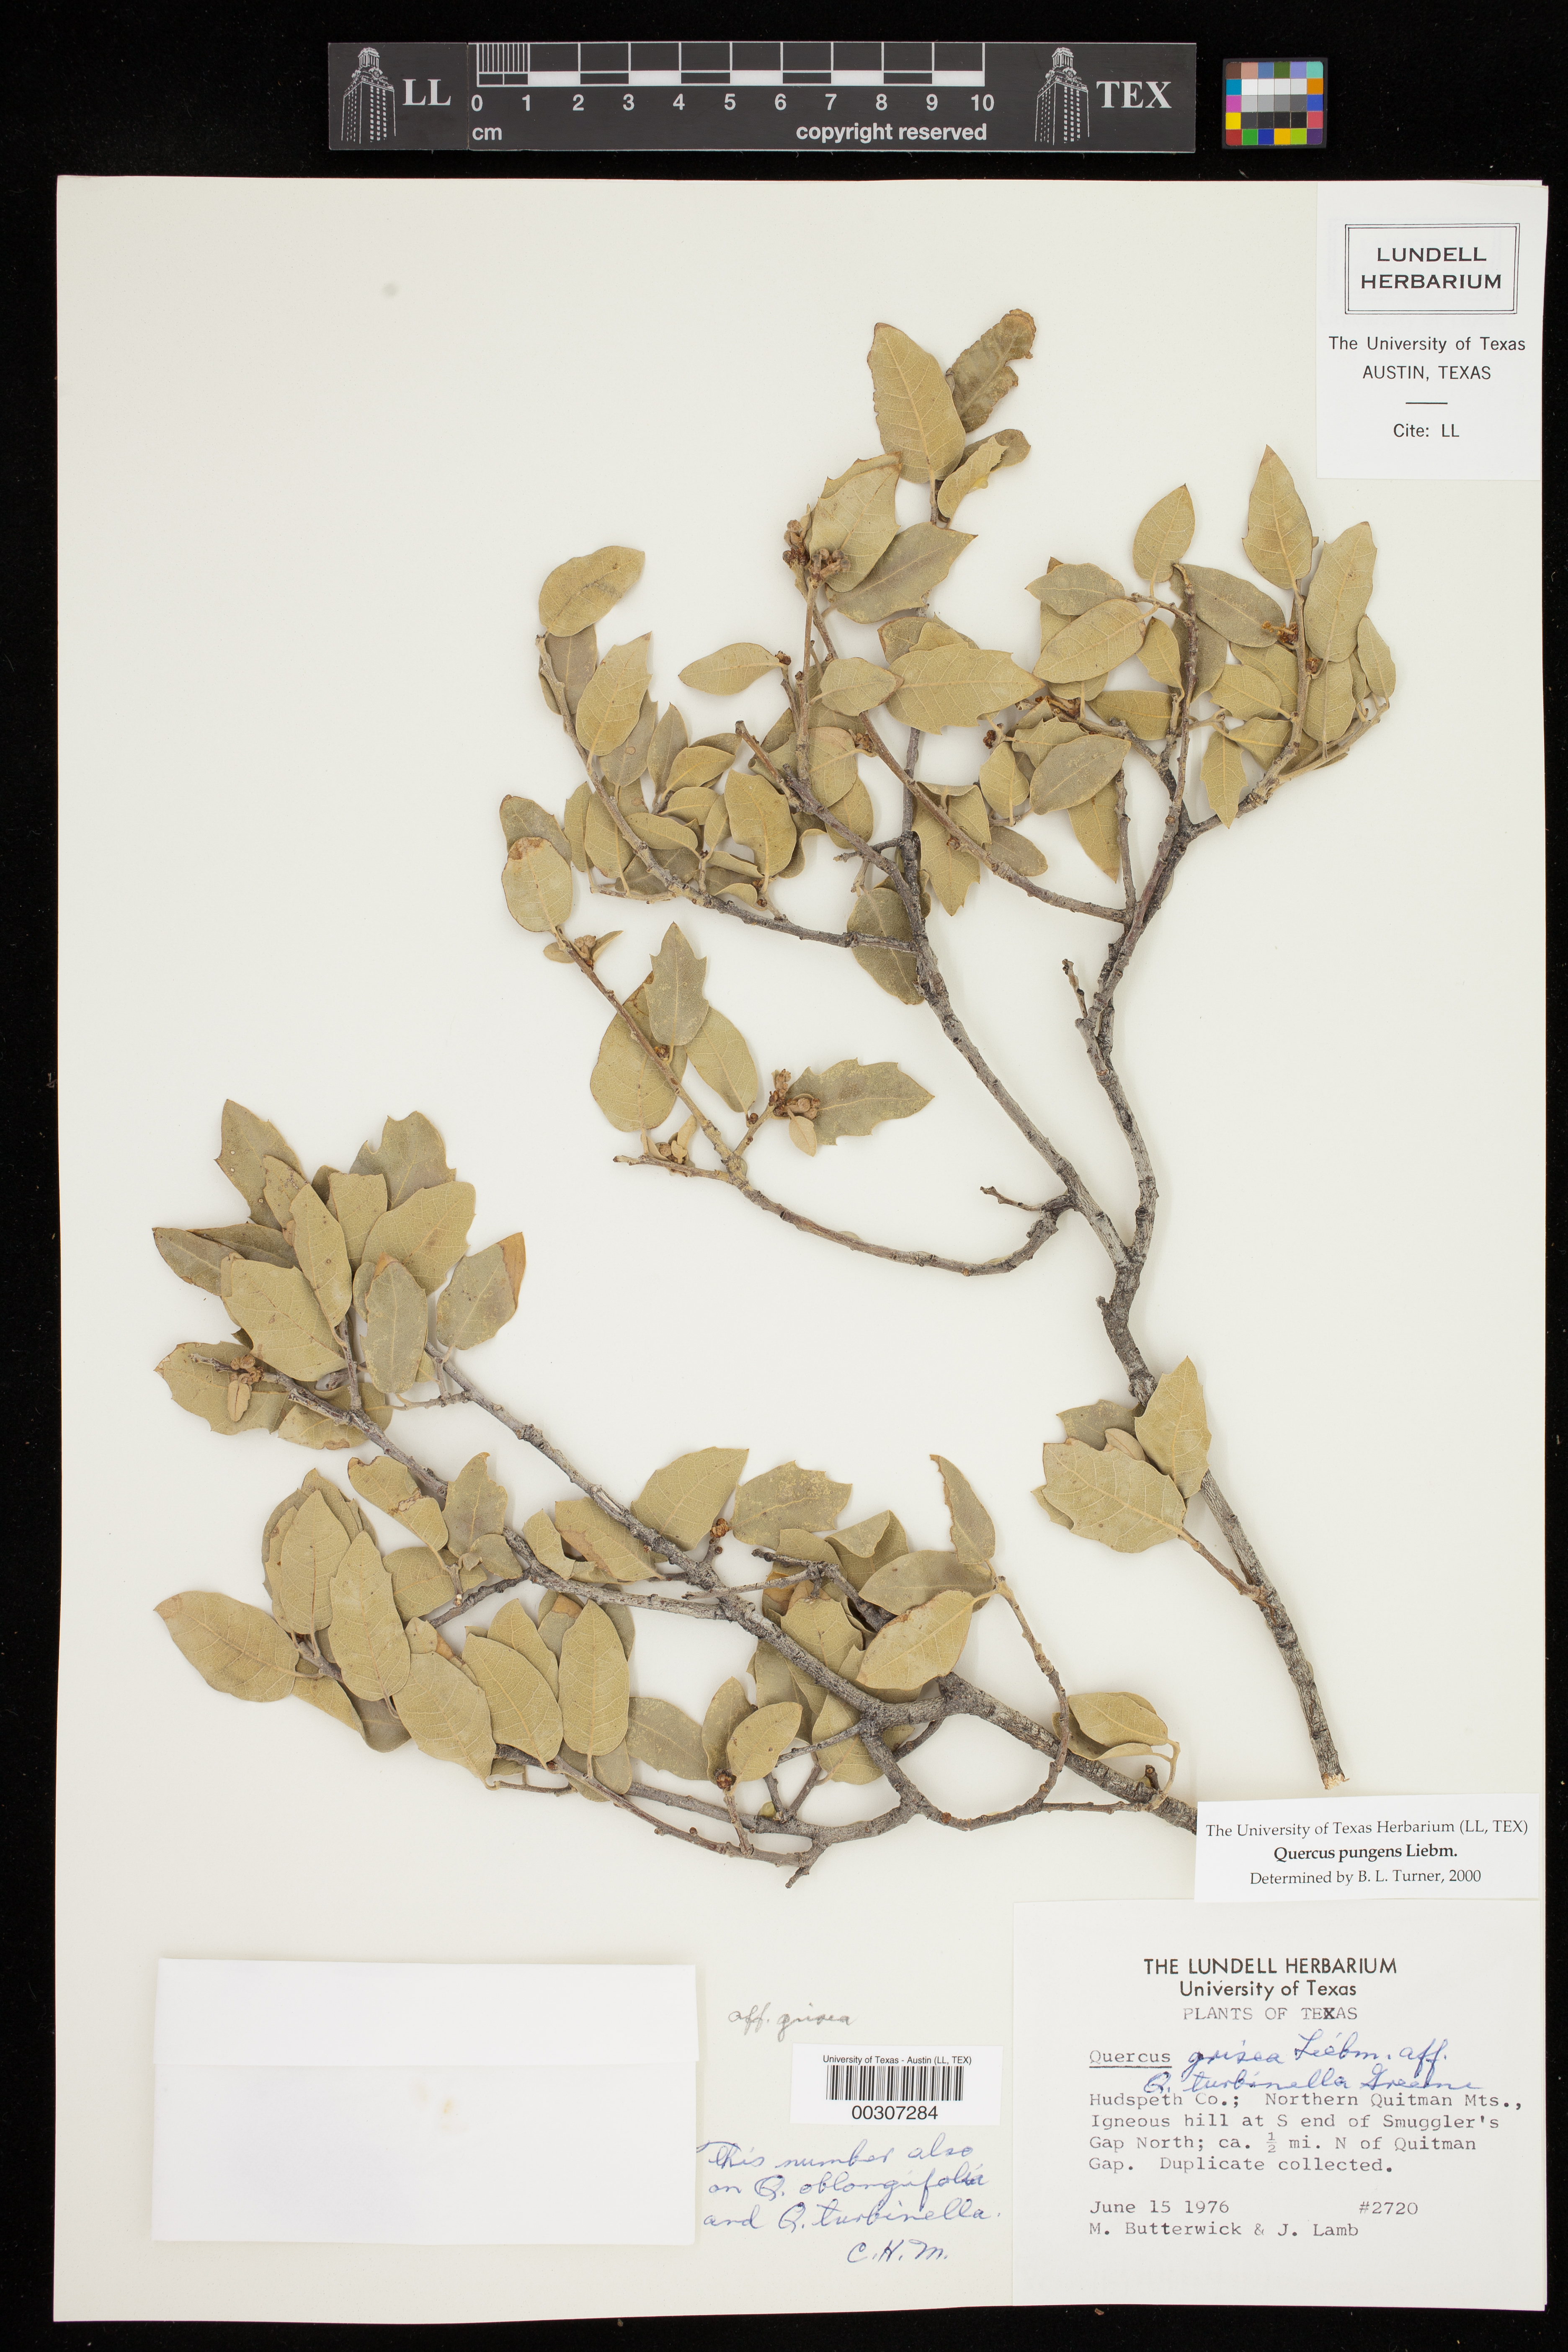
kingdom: Plantae
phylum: Tracheophyta
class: Magnoliopsida
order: Fagales
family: Fagaceae
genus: Quercus
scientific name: Quercus pungens
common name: Pungent oak
